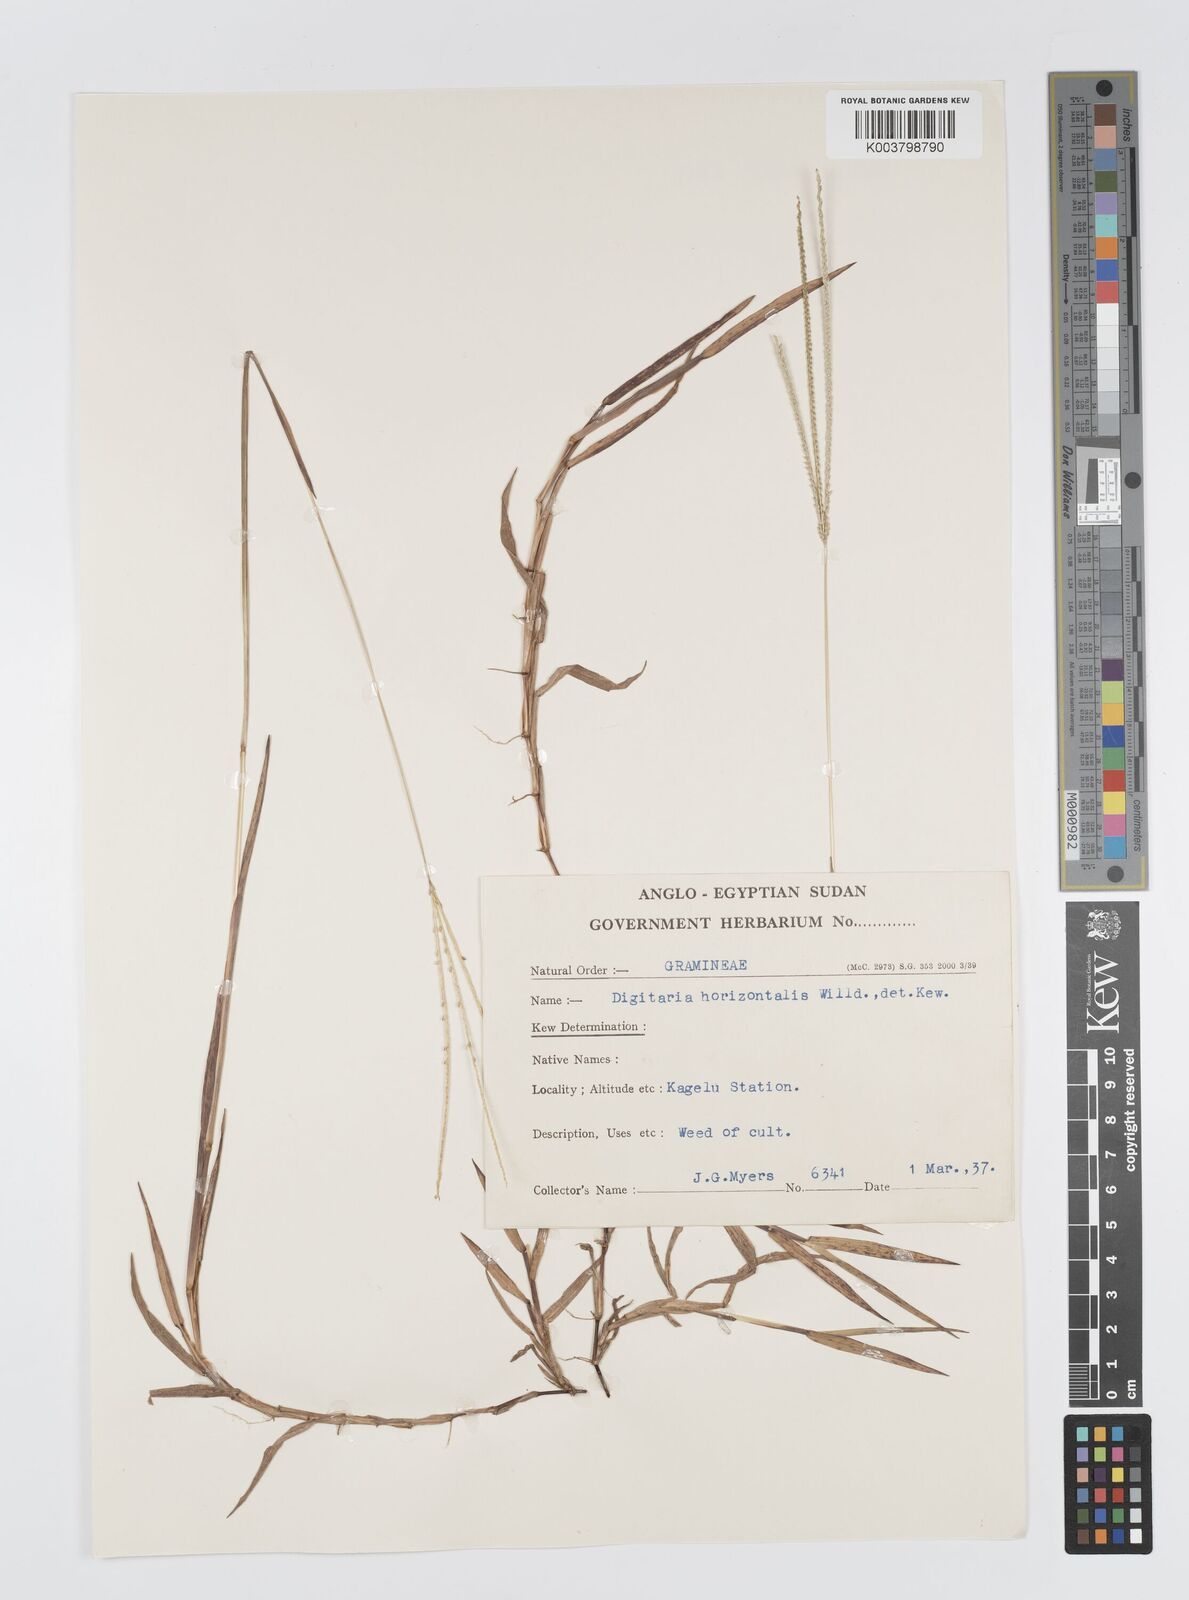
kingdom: Plantae
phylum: Tracheophyta
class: Liliopsida
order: Poales
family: Poaceae
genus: Digitaria
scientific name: Digitaria longiflora
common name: Wire crabgrass
